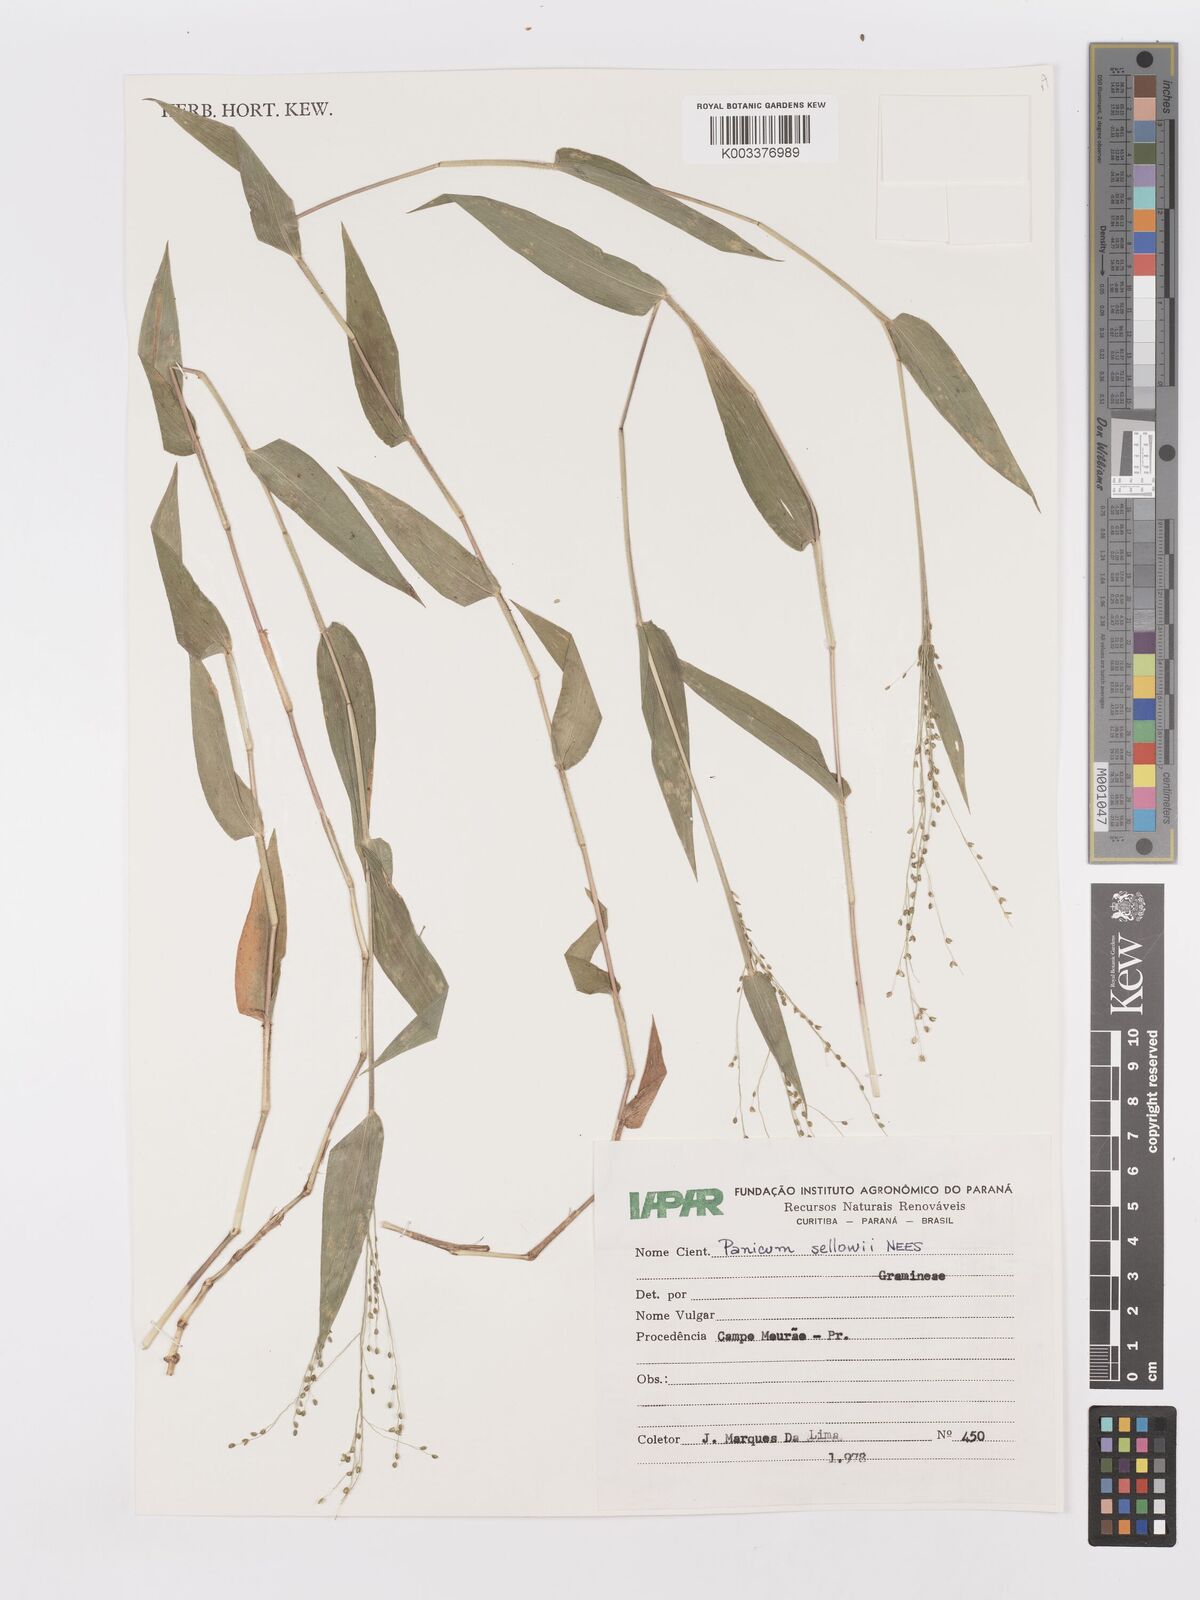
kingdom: Plantae
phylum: Tracheophyta
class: Liliopsida
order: Poales
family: Poaceae
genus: Panicum
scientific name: Panicum millegrana
